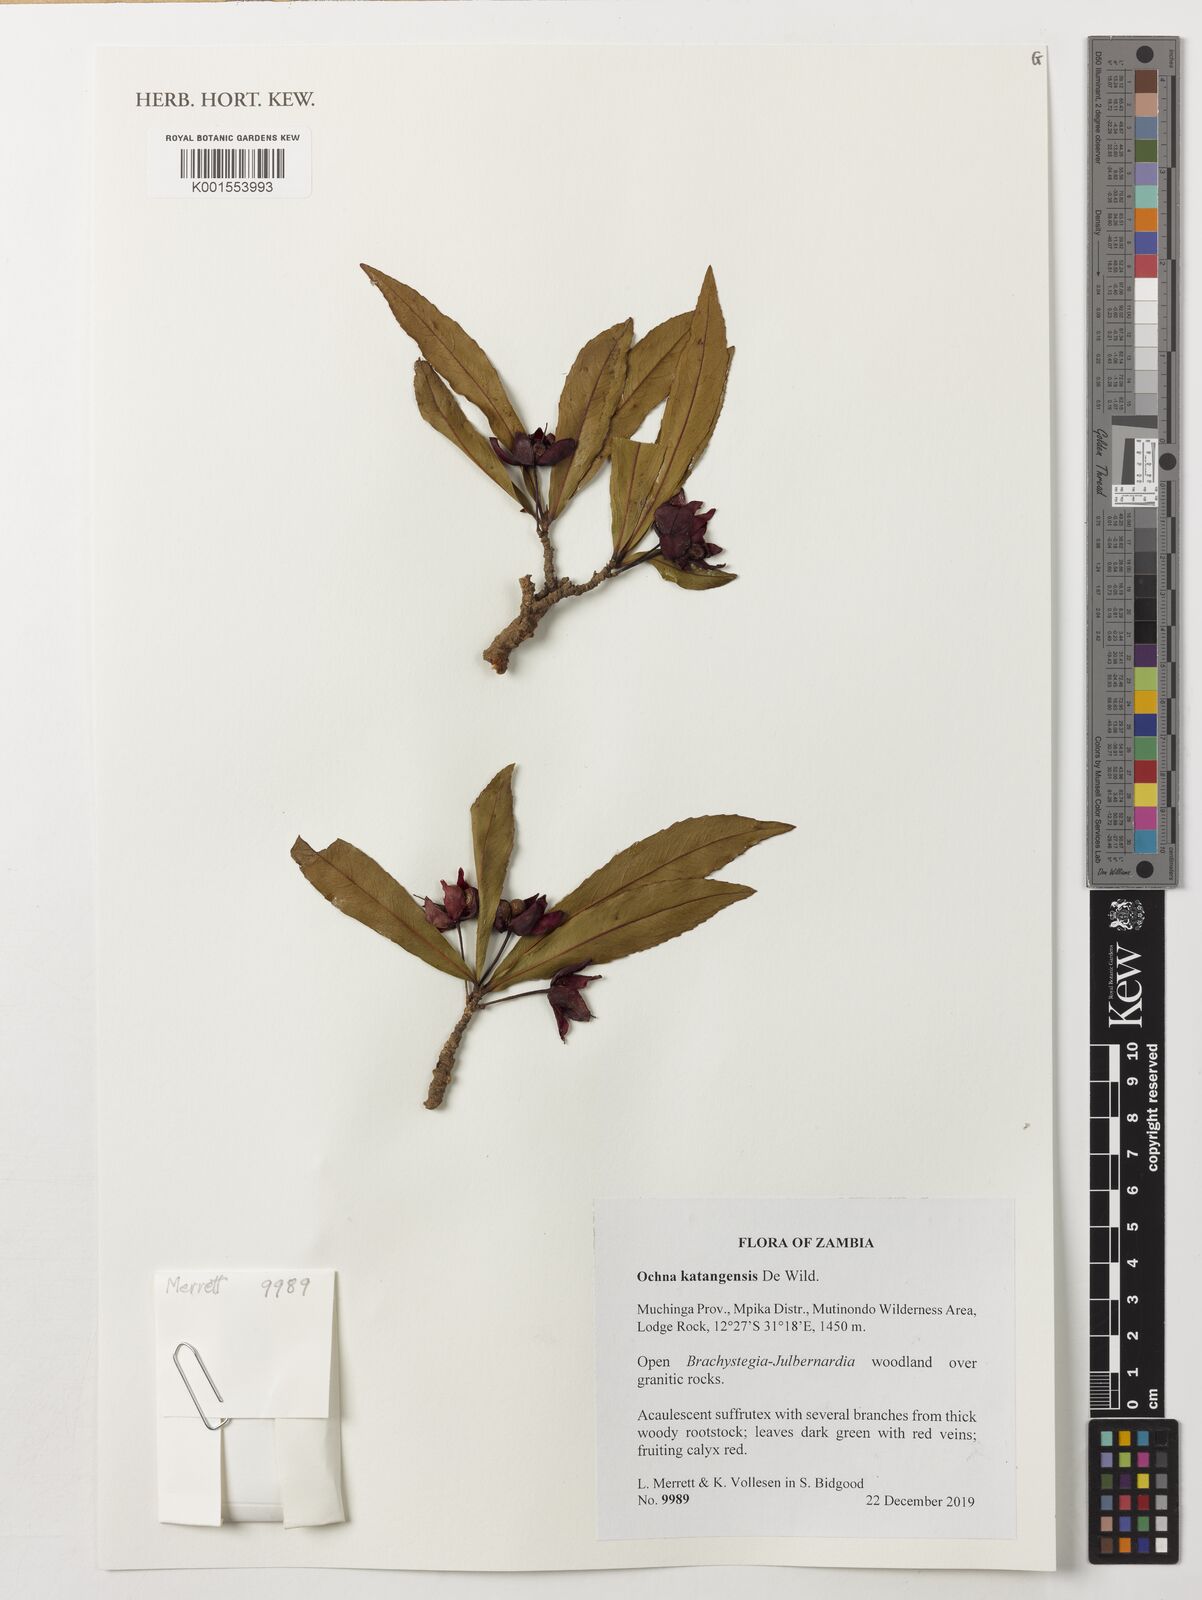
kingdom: Plantae
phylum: Tracheophyta
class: Magnoliopsida
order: Malpighiales
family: Ochnaceae
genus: Ochna
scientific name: Ochna katangensis
